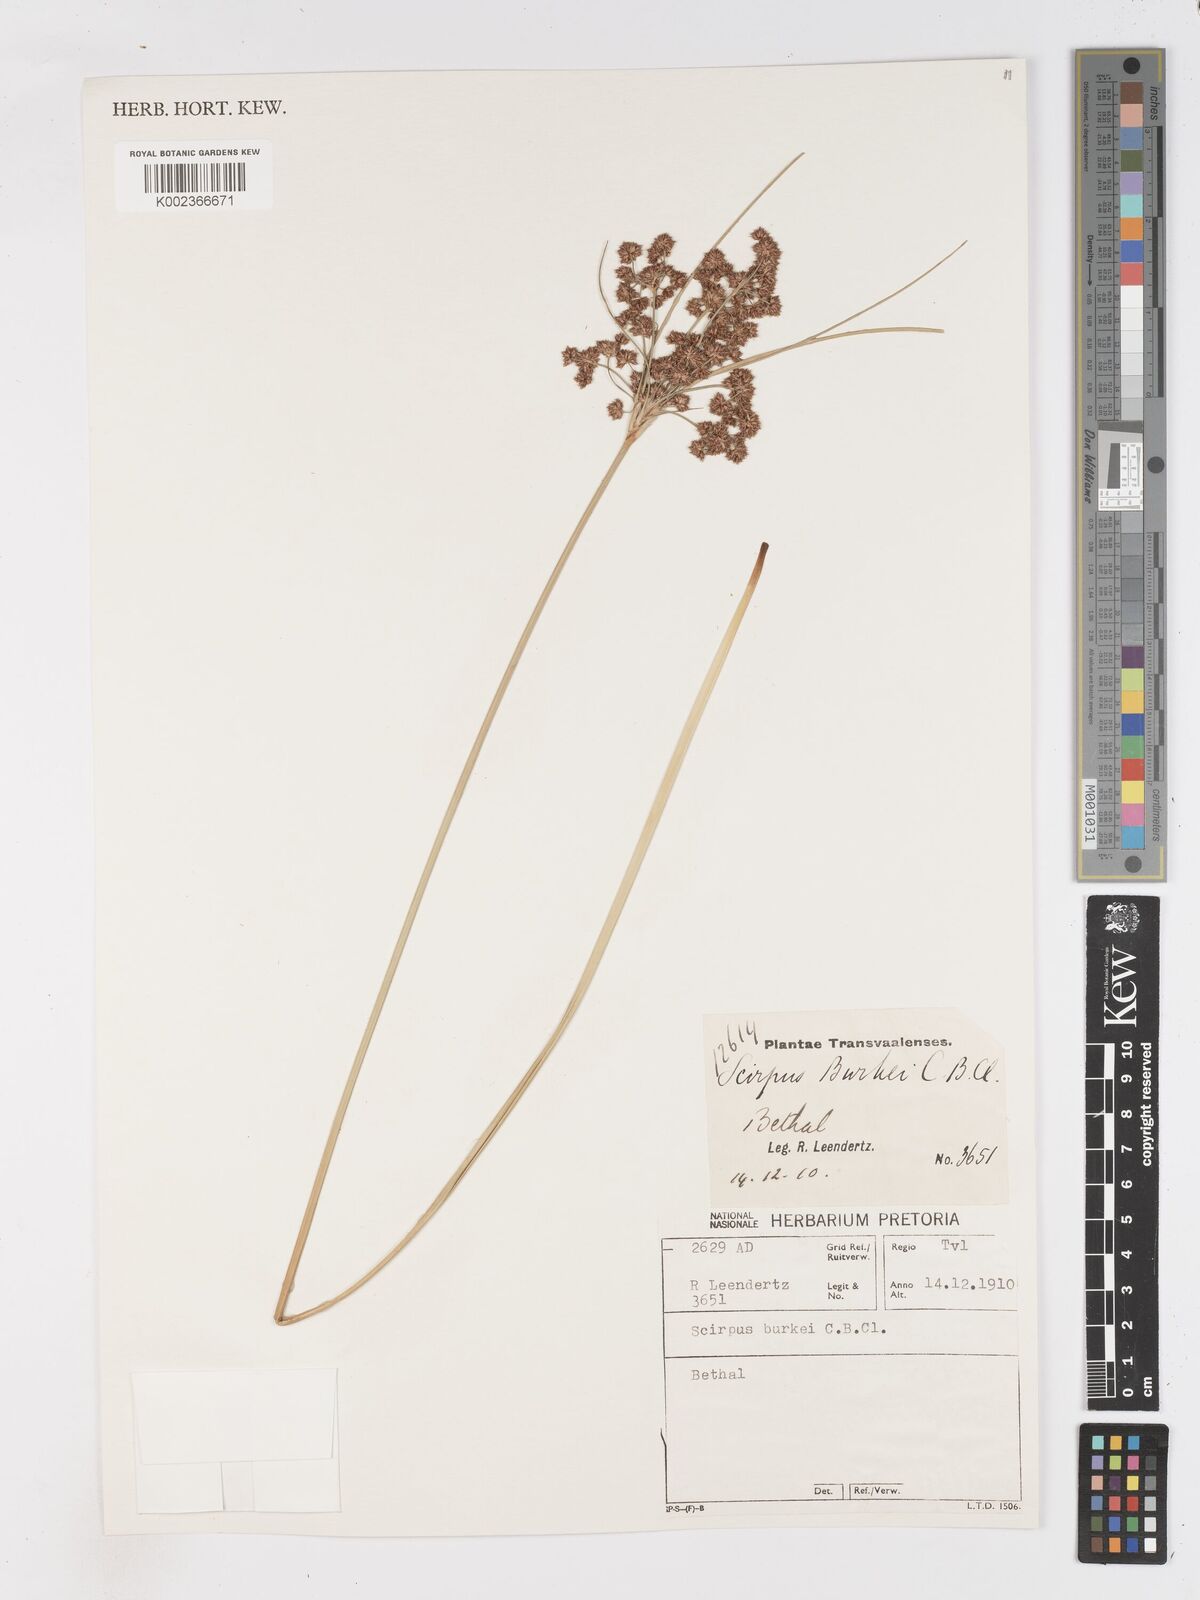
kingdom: Plantae
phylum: Tracheophyta
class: Liliopsida
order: Poales
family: Cyperaceae
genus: Scirpoides
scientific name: Scirpoides burkei
